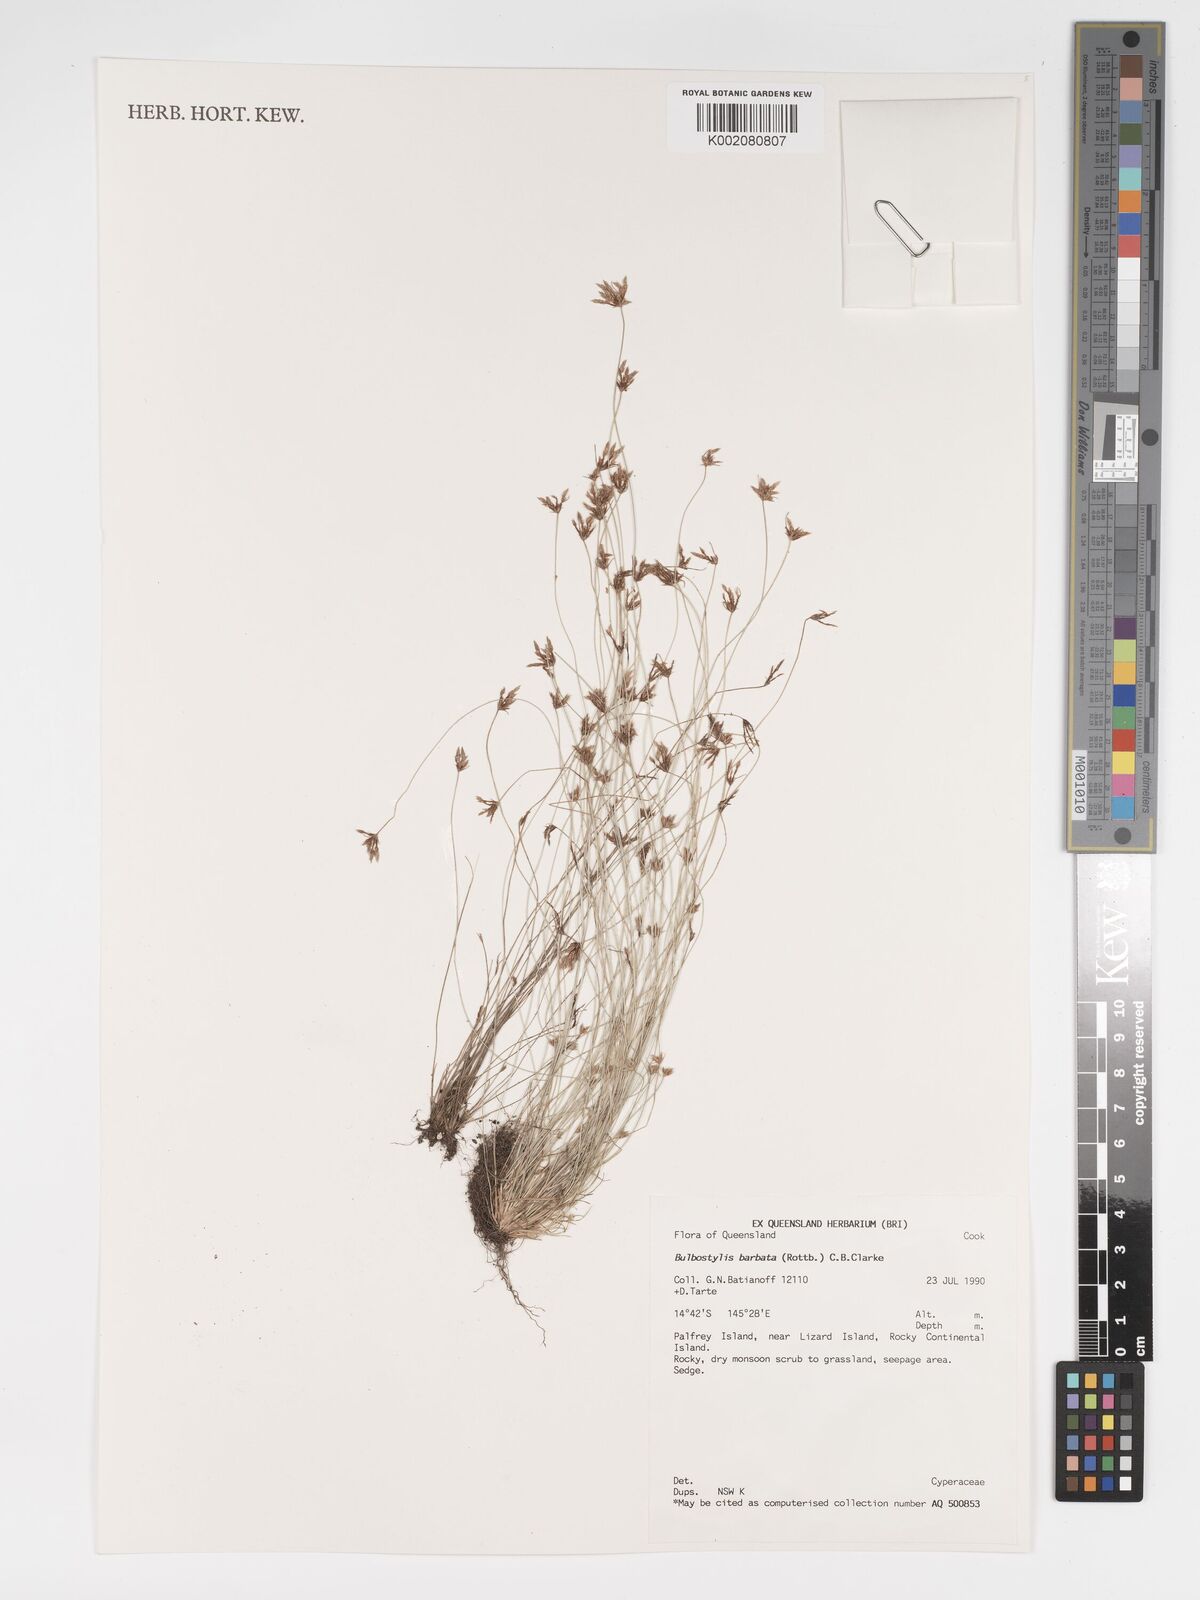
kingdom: Plantae
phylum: Tracheophyta
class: Liliopsida
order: Poales
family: Cyperaceae
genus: Bulbostylis
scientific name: Bulbostylis barbata
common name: Watergrass
